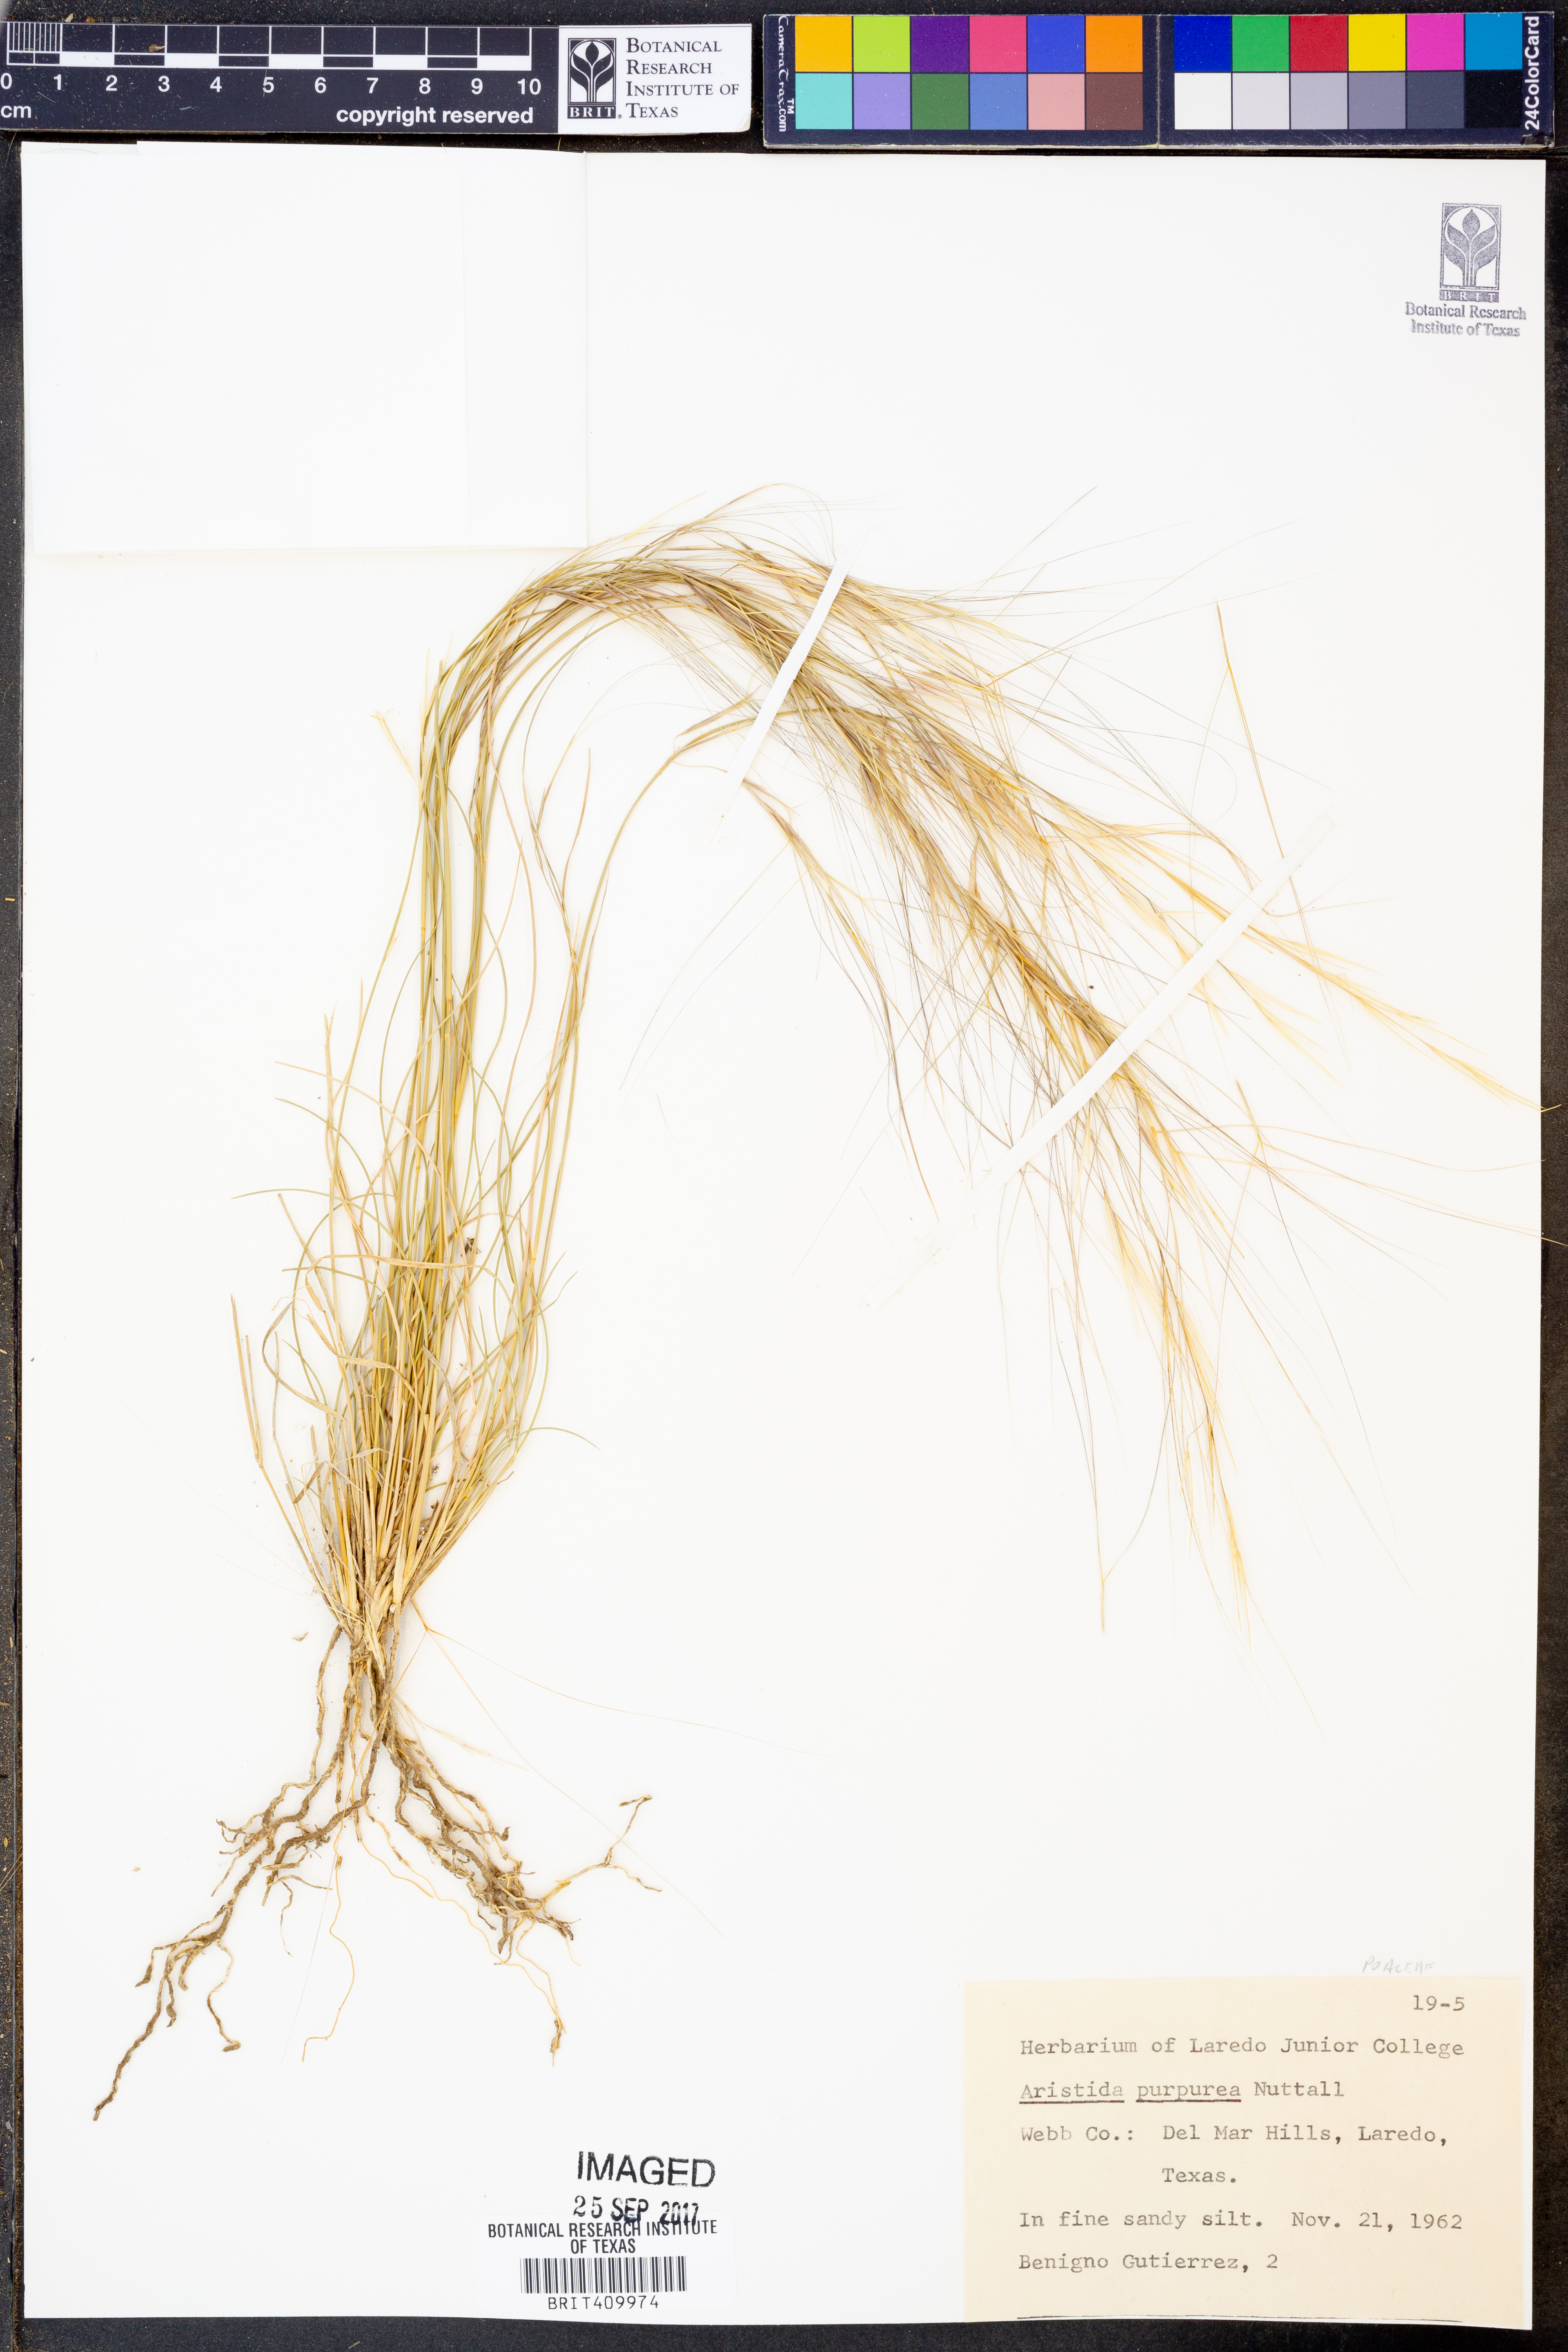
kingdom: Plantae
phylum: Tracheophyta
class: Liliopsida
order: Poales
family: Poaceae
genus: Aristida
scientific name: Aristida purpurea
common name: Purple threeawn
